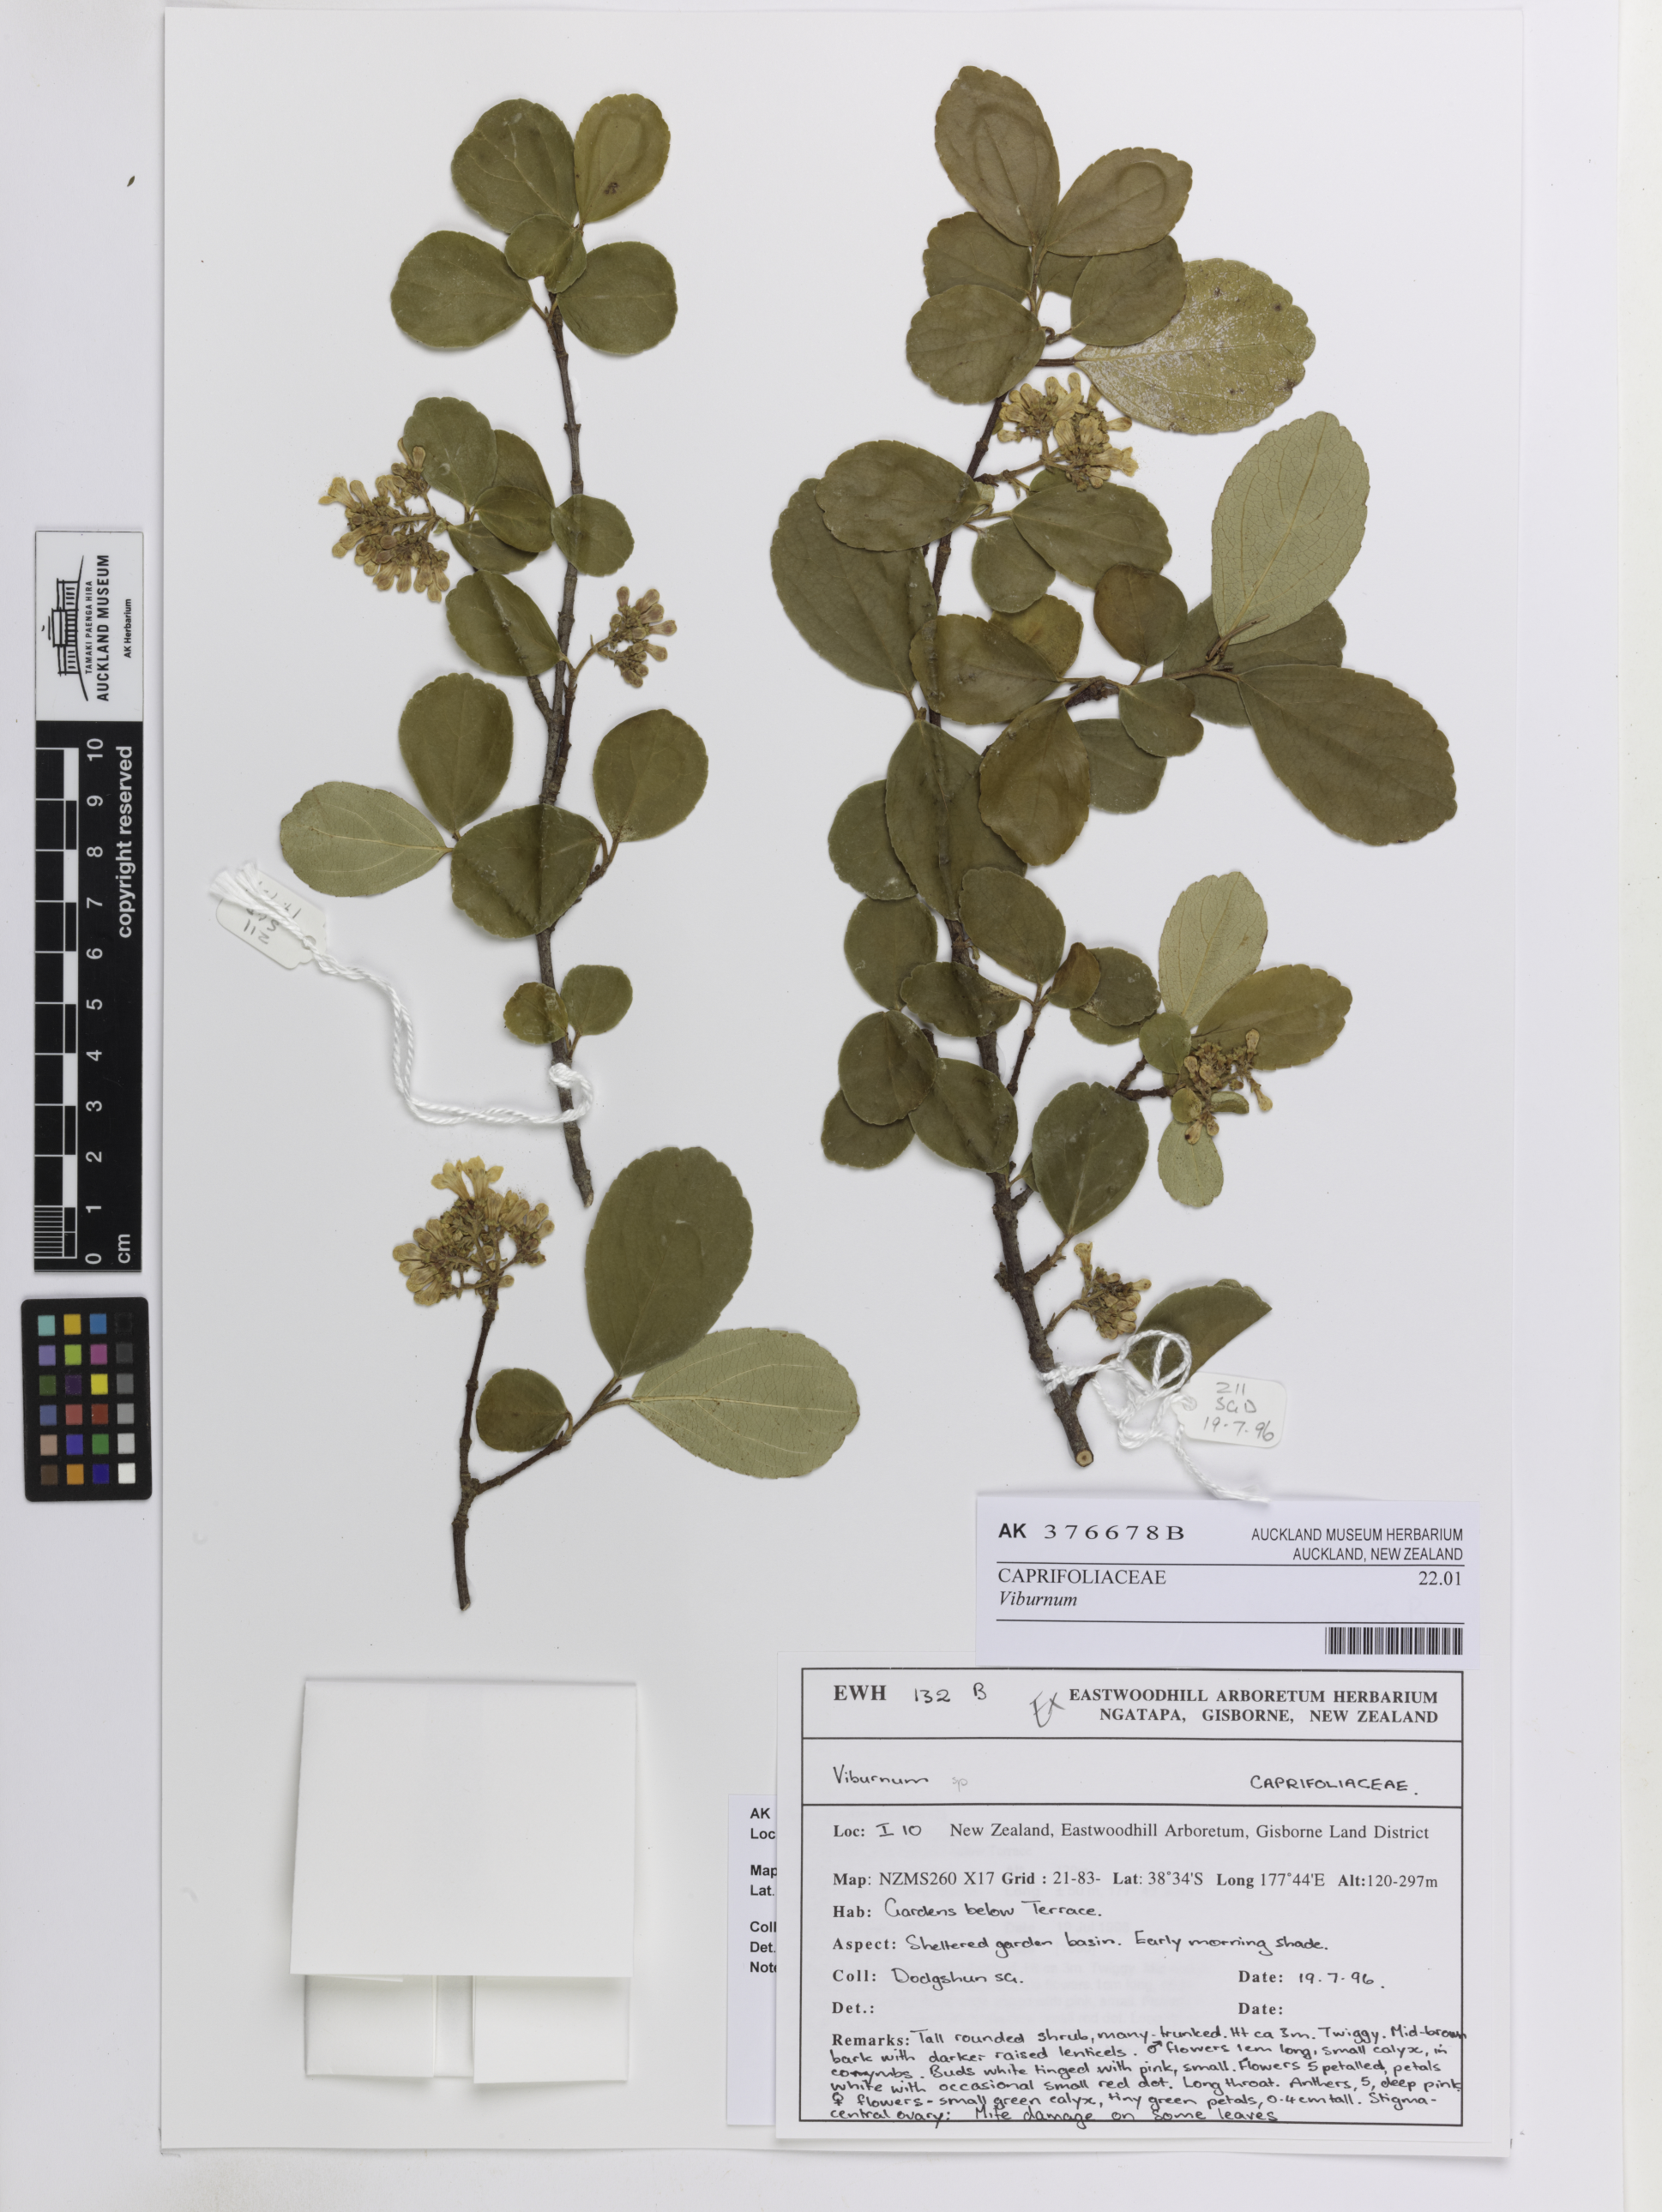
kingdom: Plantae
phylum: Tracheophyta
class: Magnoliopsida
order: Dipsacales
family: Viburnaceae
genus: Viburnum
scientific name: Viburnum
